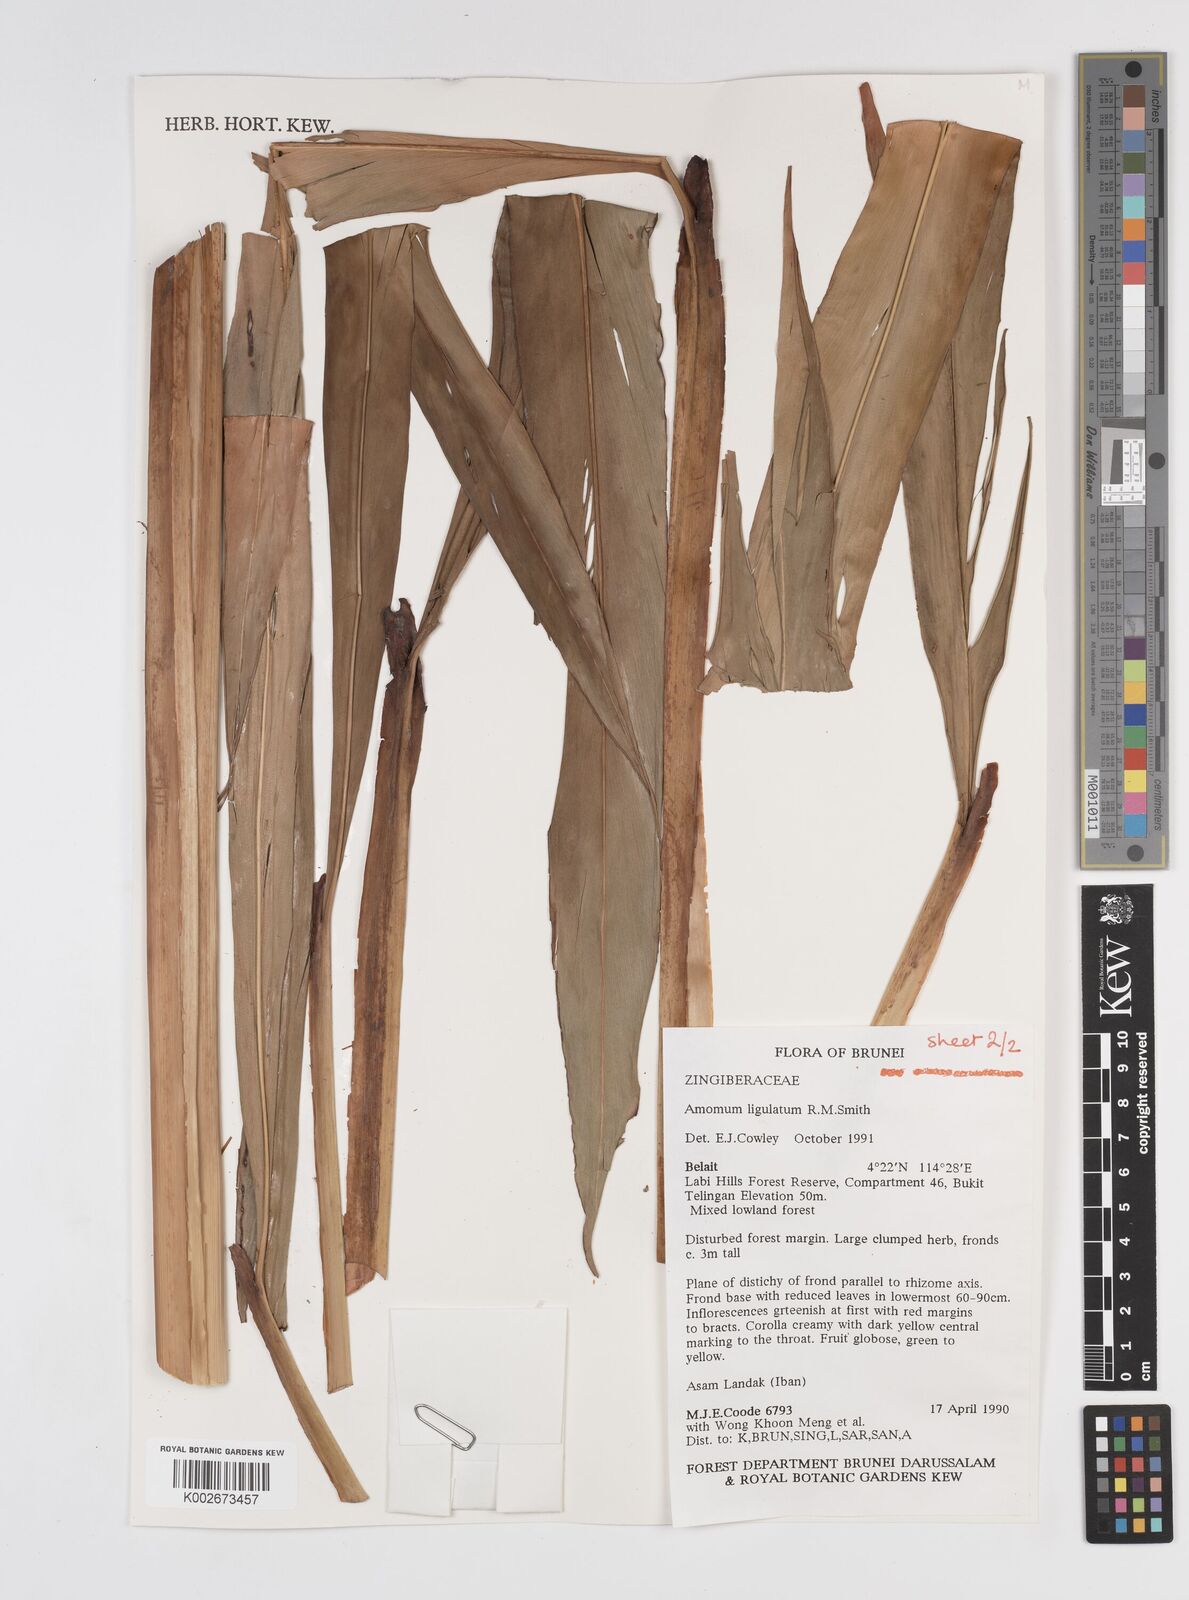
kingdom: Plantae
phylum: Tracheophyta
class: Liliopsida
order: Zingiberales
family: Zingiberaceae
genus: Sulettaria
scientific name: Sulettaria ligulata
